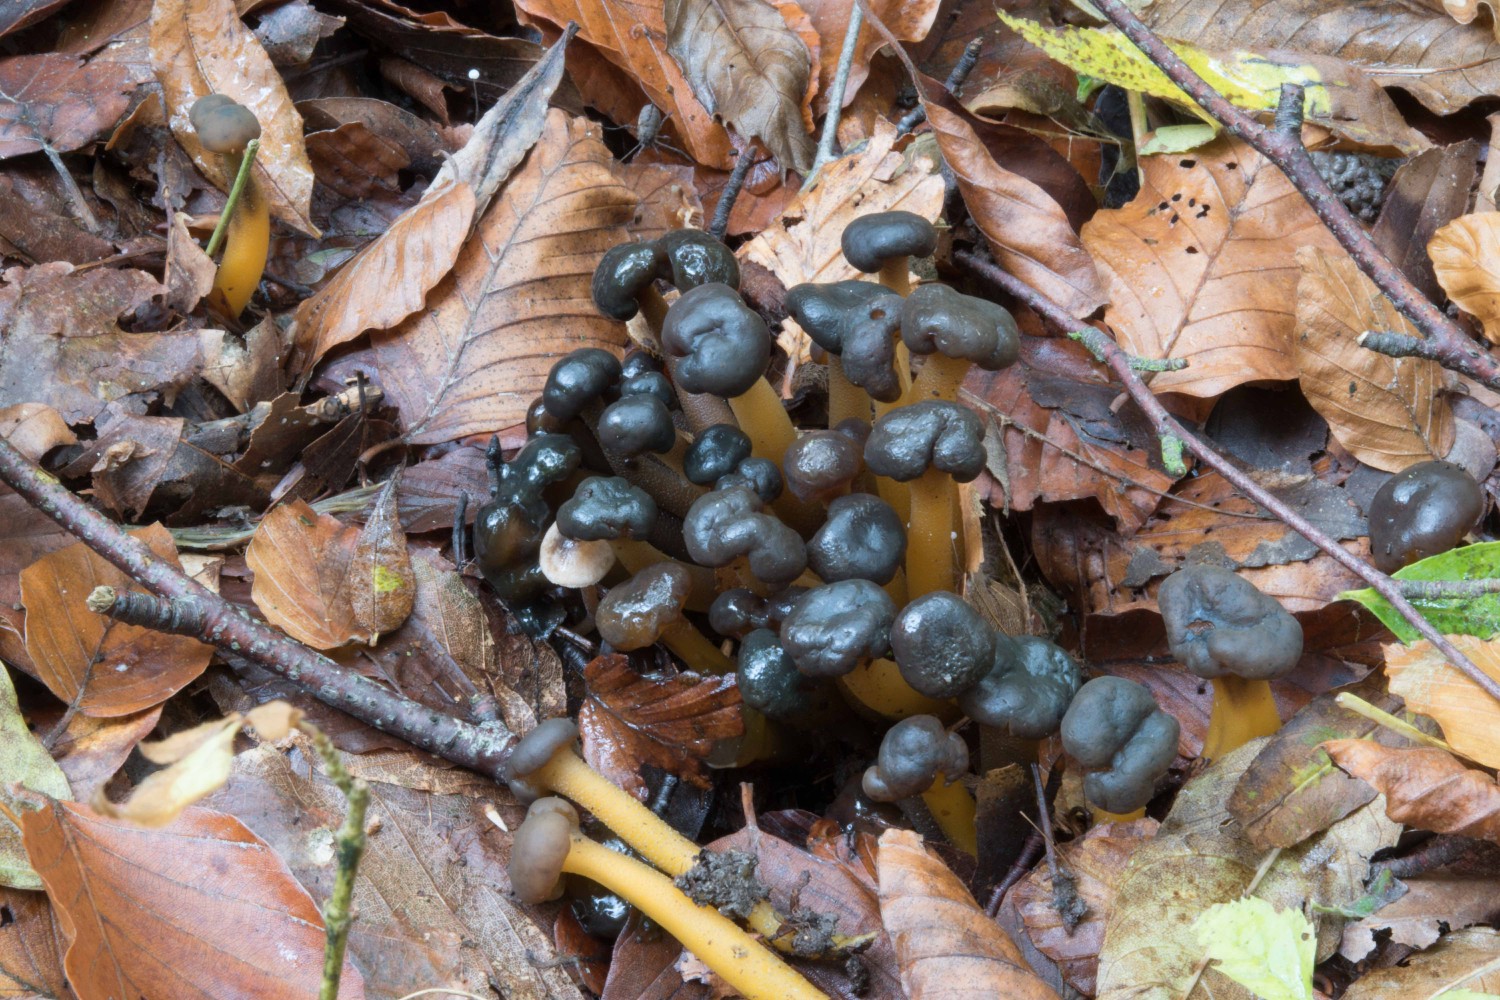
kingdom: Fungi
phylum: Ascomycota
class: Leotiomycetes
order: Leotiales
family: Leotiaceae
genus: Leotia
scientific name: Leotia lubrica
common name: ravsvamp
